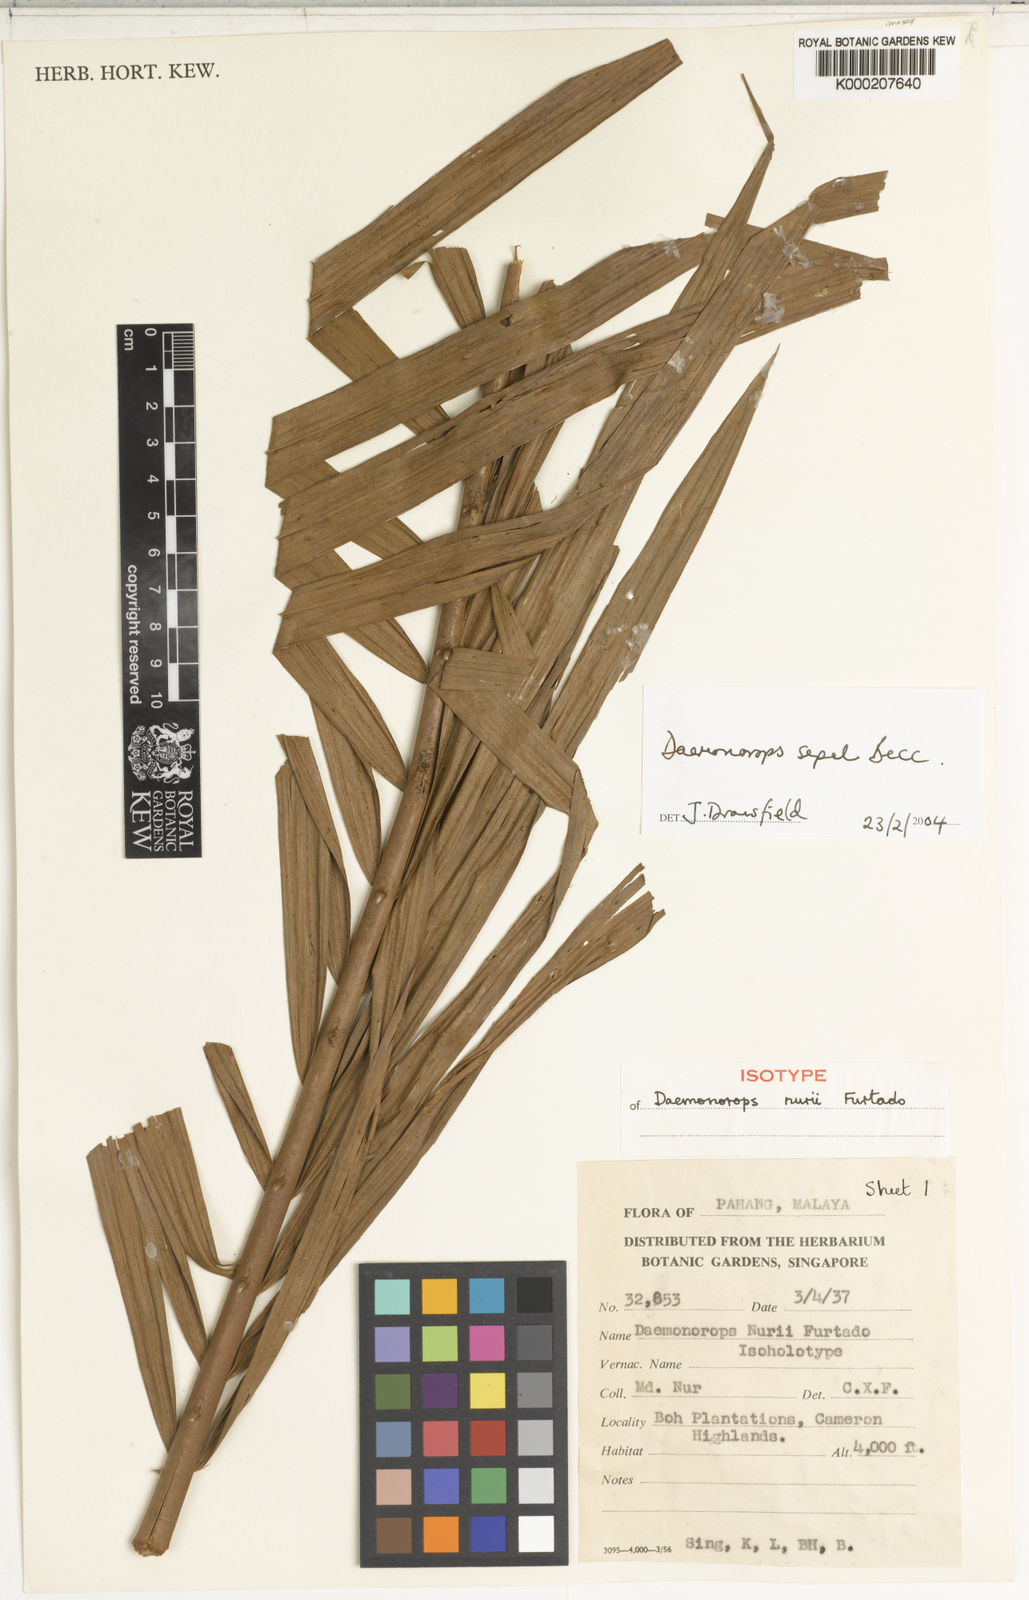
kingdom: Plantae
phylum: Tracheophyta
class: Liliopsida
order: Arecales
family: Arecaceae
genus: Calamus
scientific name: Calamus melanochaetes
